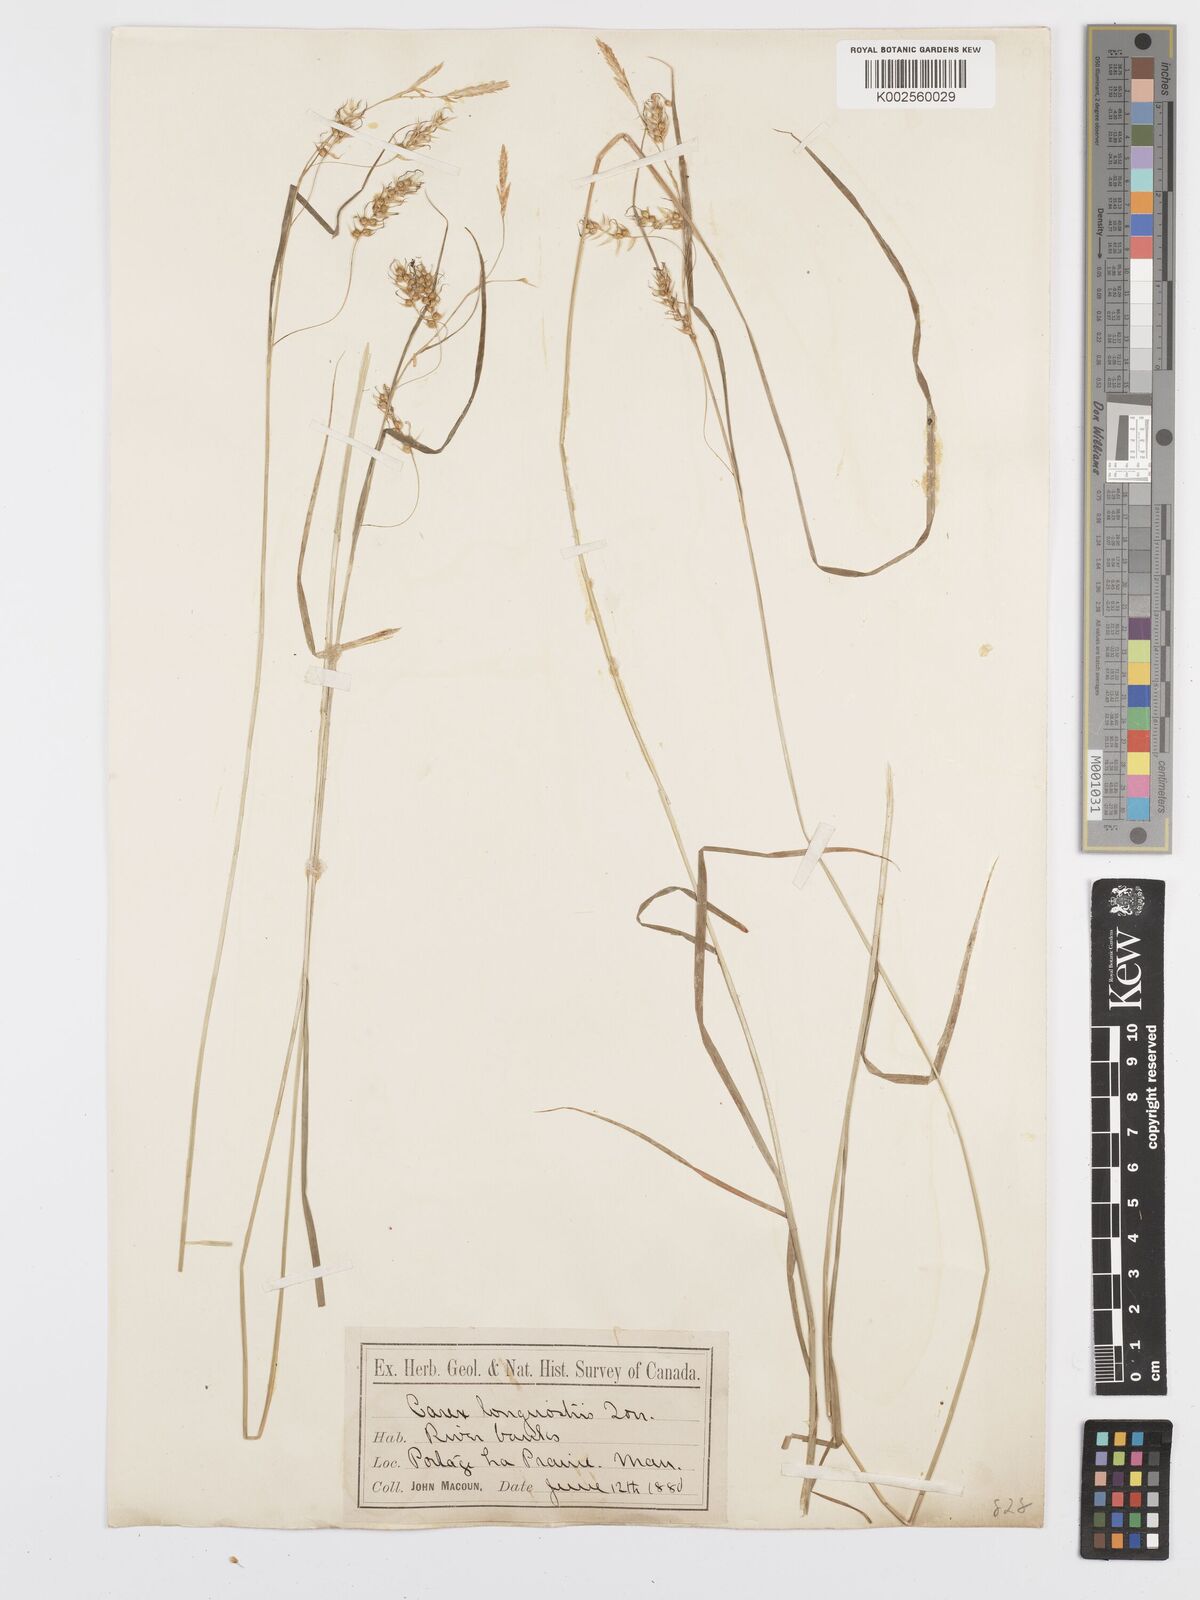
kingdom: Plantae
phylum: Tracheophyta
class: Liliopsida
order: Poales
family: Cyperaceae
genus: Carex
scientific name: Carex sprengelii
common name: Long-beaked sedge
